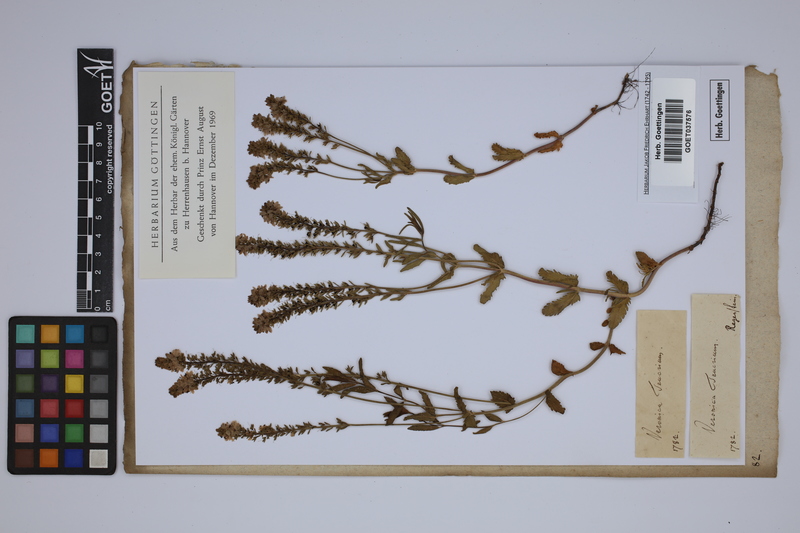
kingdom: Plantae
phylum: Tracheophyta
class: Magnoliopsida
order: Lamiales
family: Plantaginaceae
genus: Veronica
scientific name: Veronica teucrium
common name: Large speedwell
